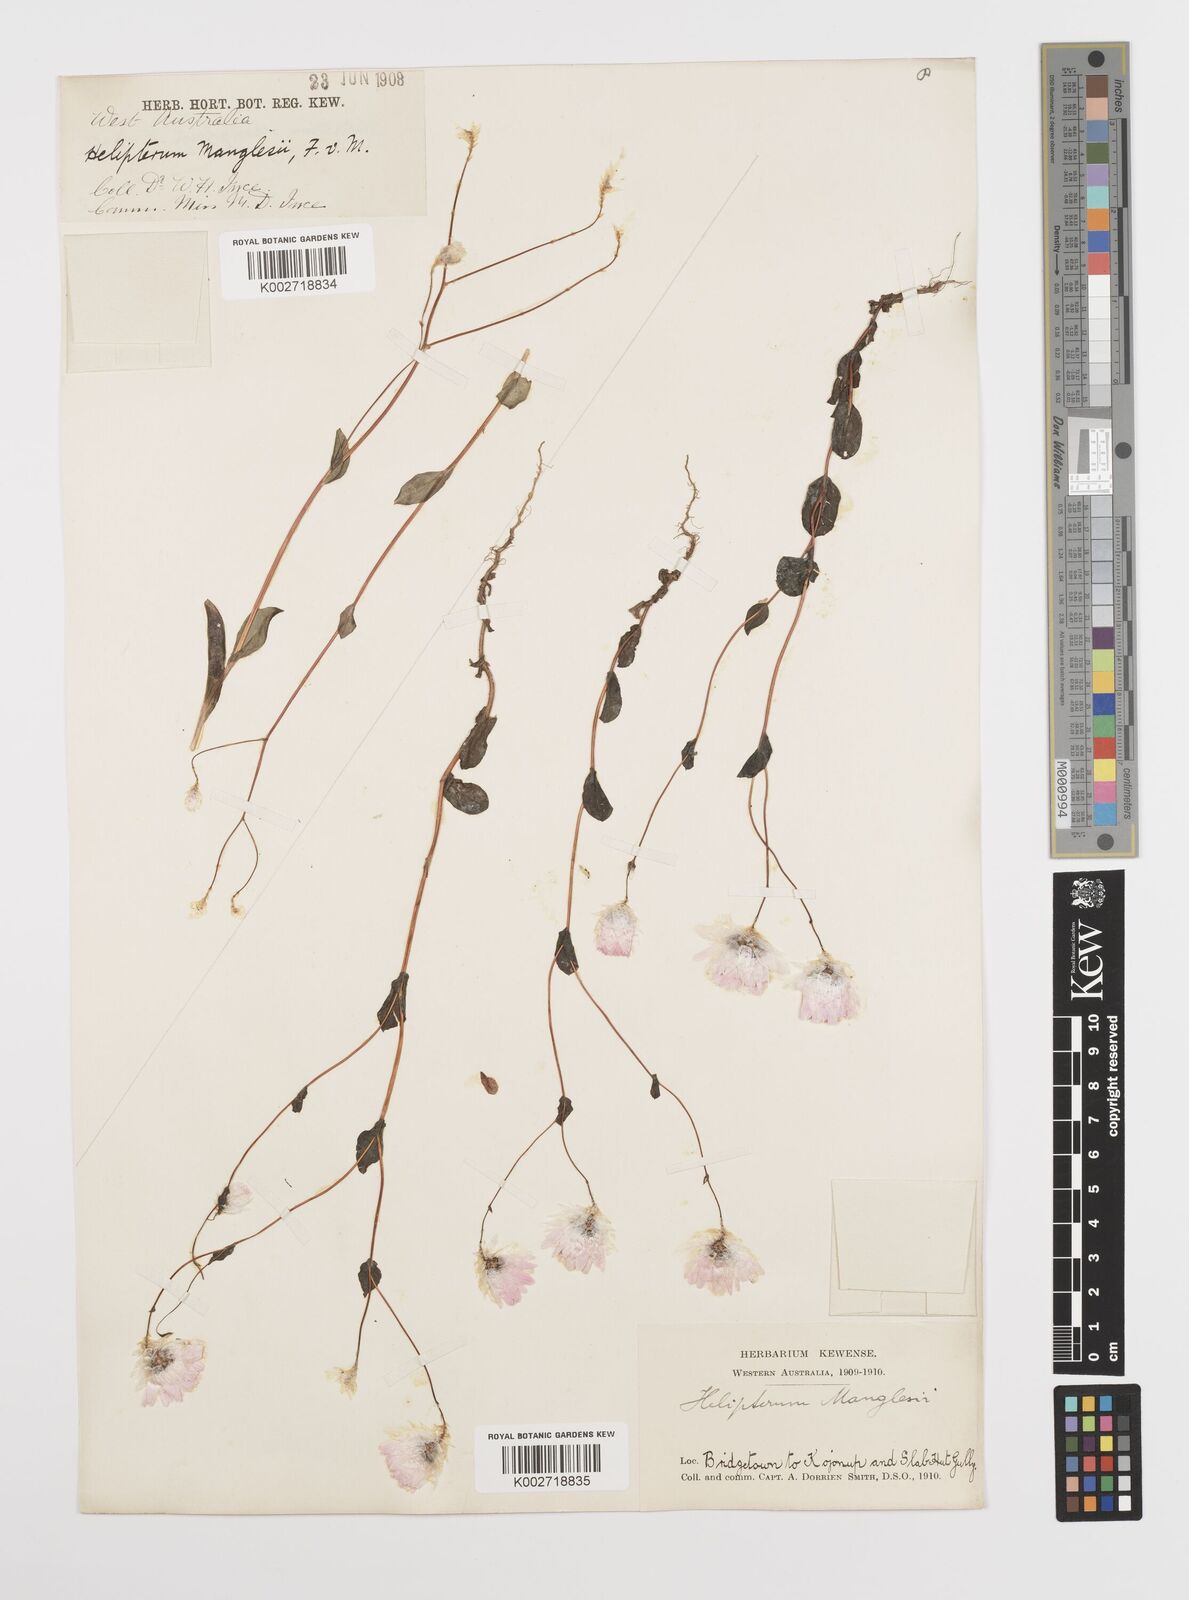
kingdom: Plantae
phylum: Tracheophyta
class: Magnoliopsida
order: Asterales
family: Asteraceae
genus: Rhodanthe
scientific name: Rhodanthe manglesii
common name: Pink sunray
